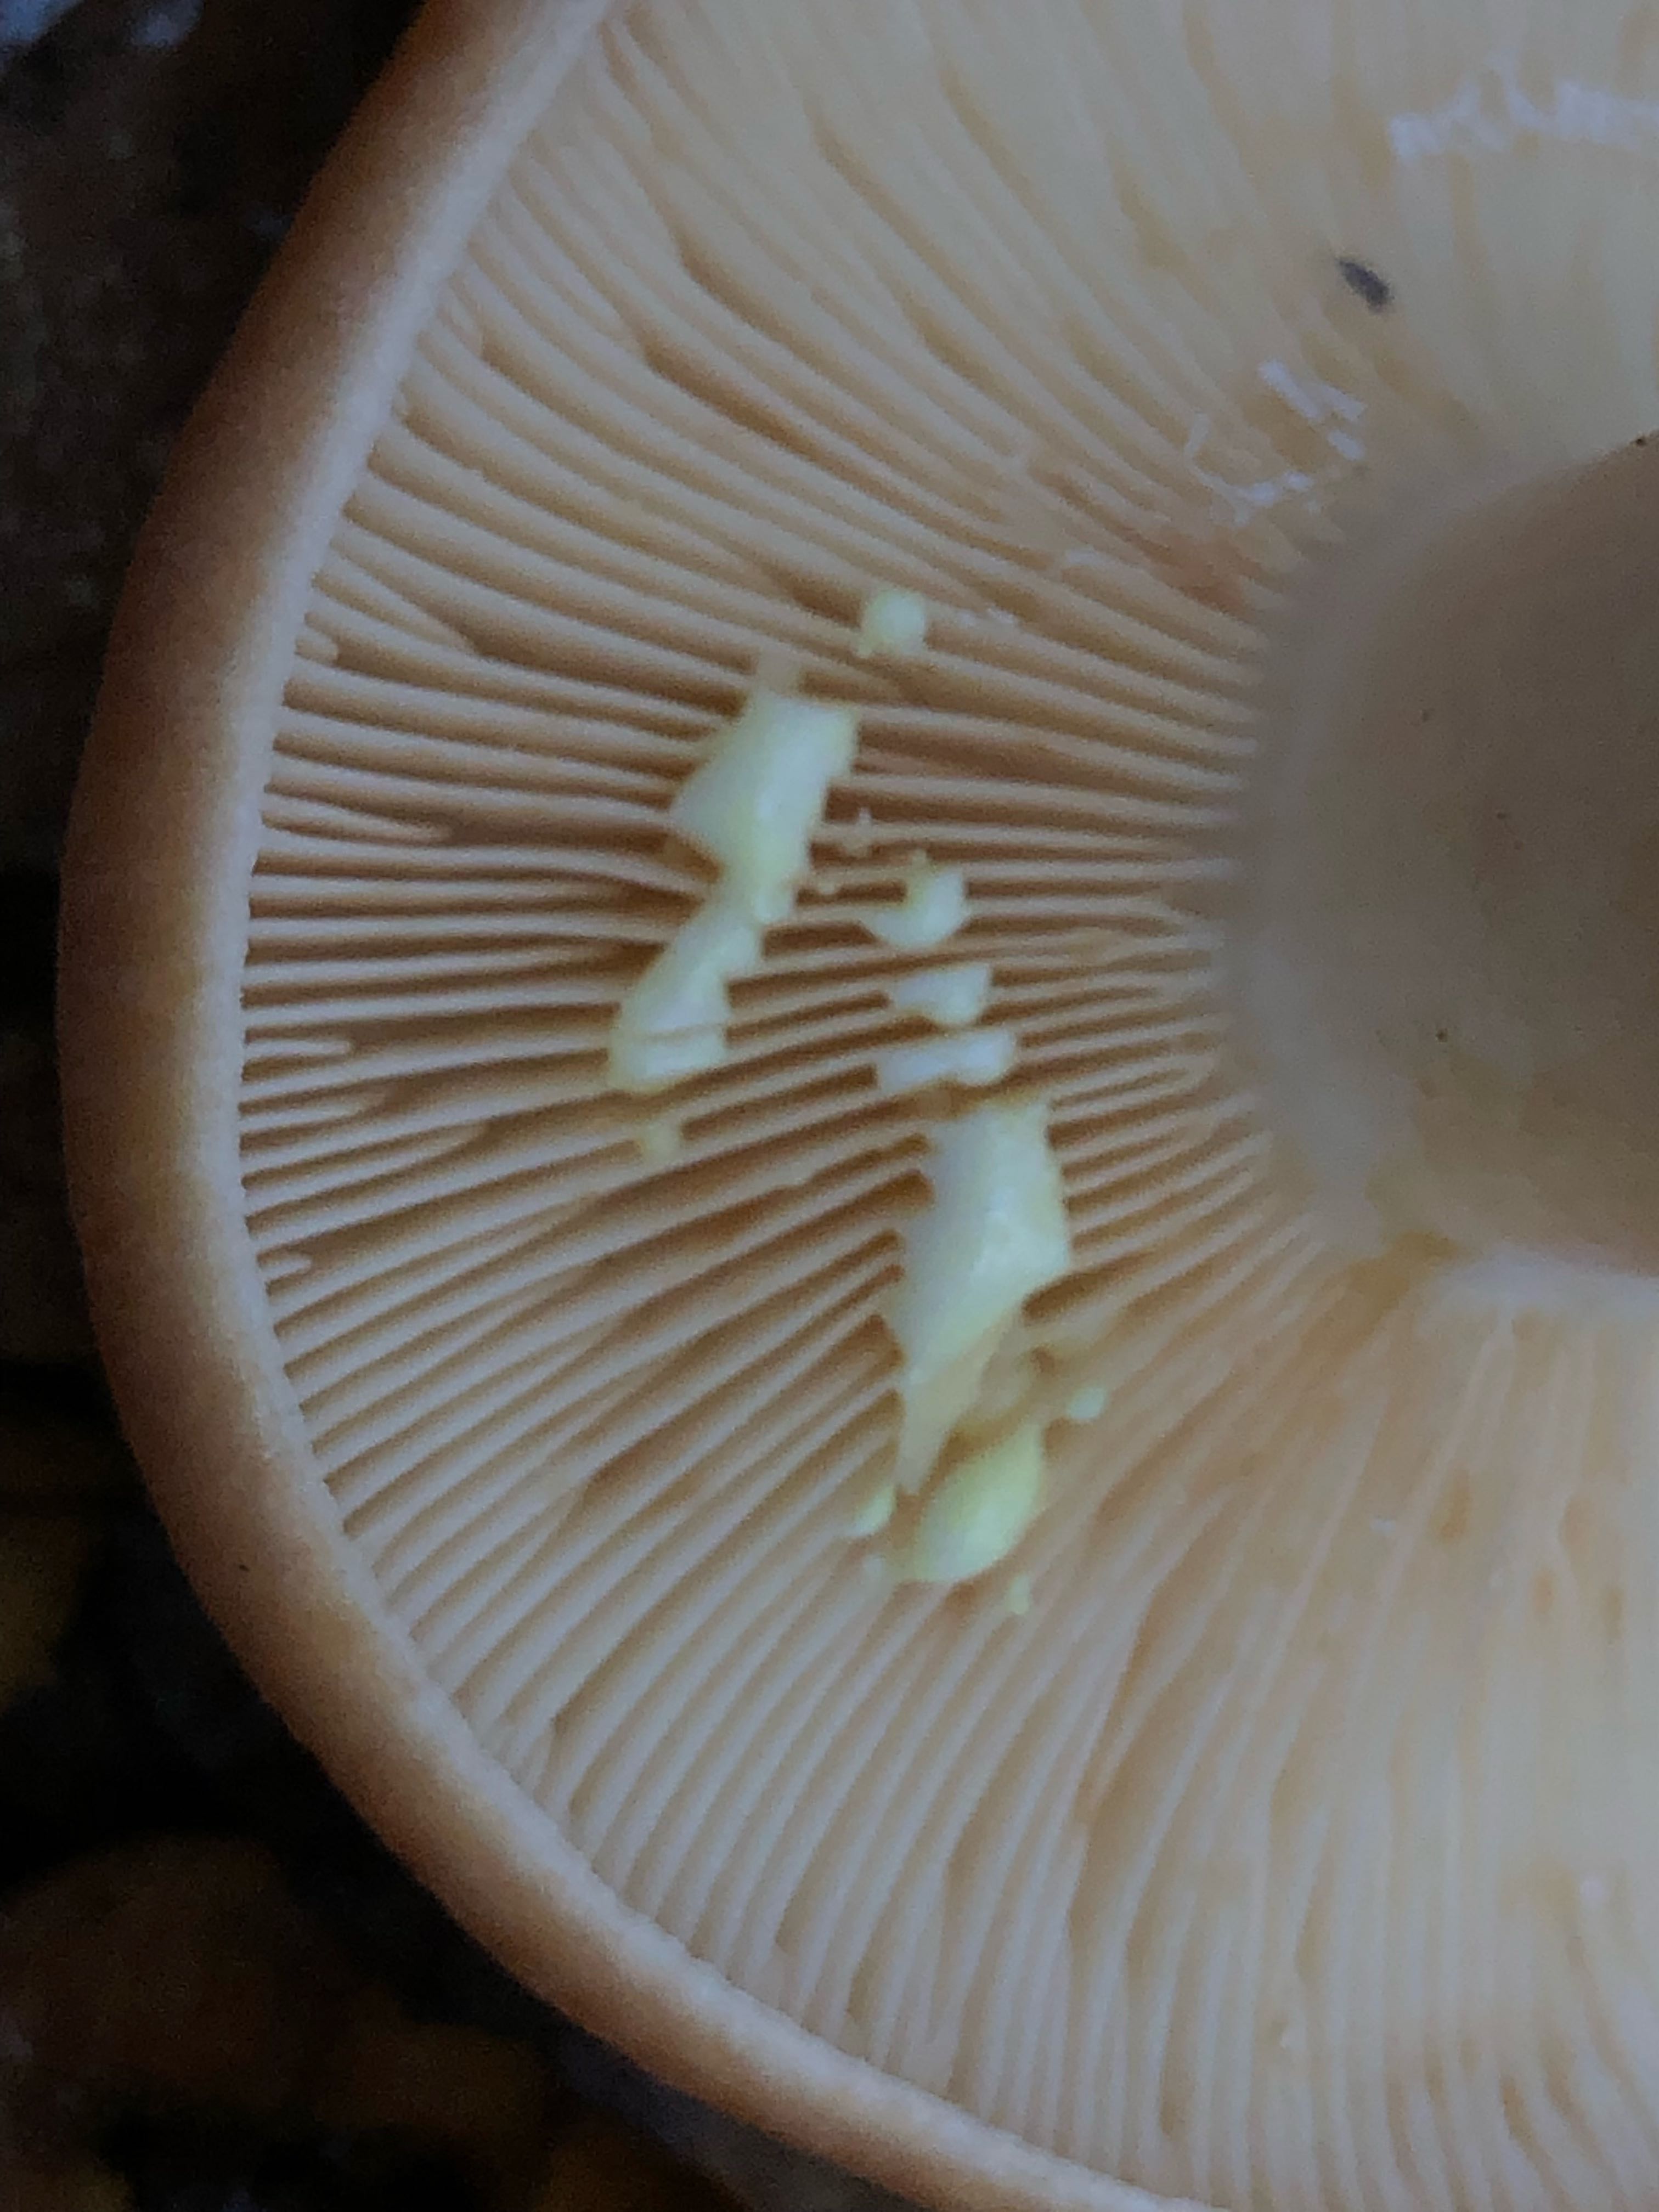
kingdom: Fungi
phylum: Basidiomycota
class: Agaricomycetes
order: Russulales
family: Russulaceae
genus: Lactarius
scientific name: Lactarius chrysorrheus
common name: svovlmælket mælkehat
